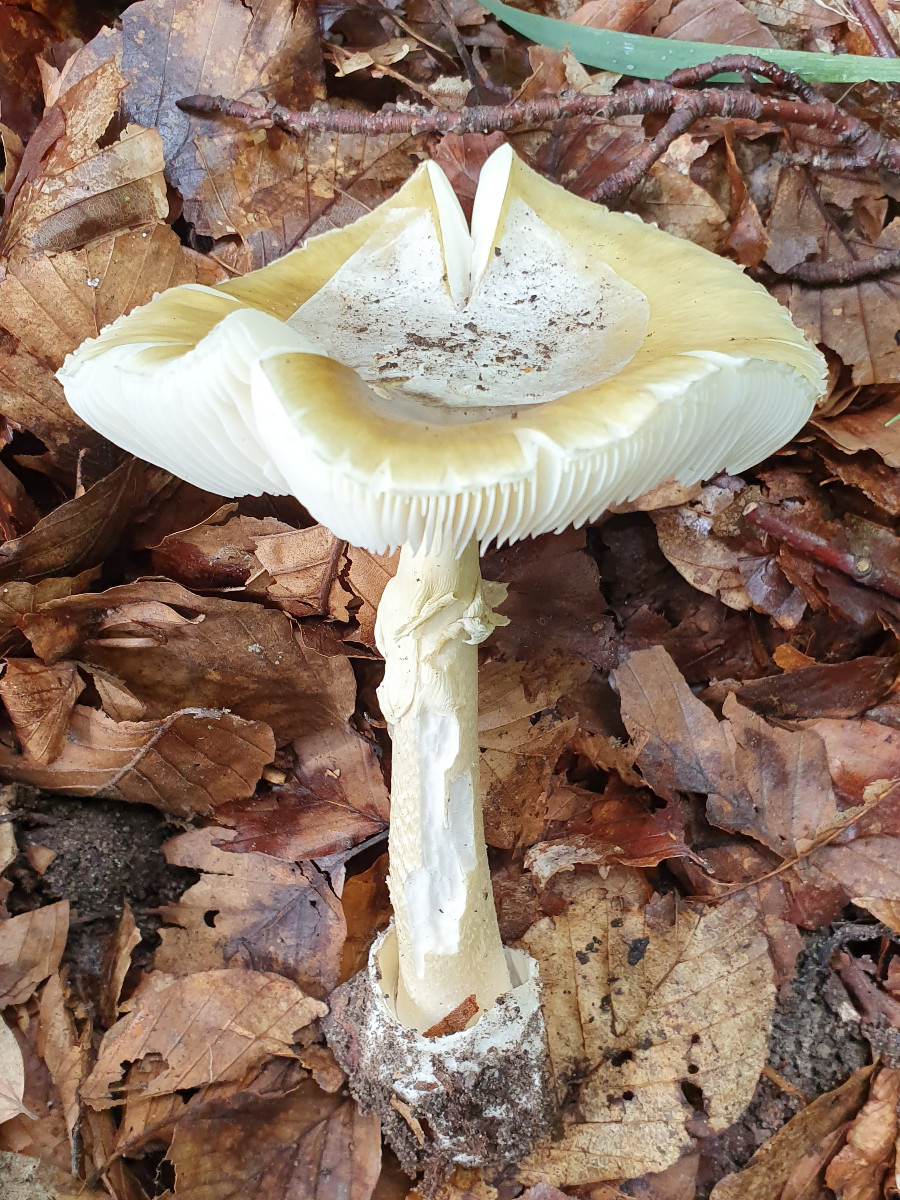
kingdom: Fungi
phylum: Basidiomycota
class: Agaricomycetes
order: Agaricales
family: Amanitaceae
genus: Amanita
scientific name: Amanita phalloides
